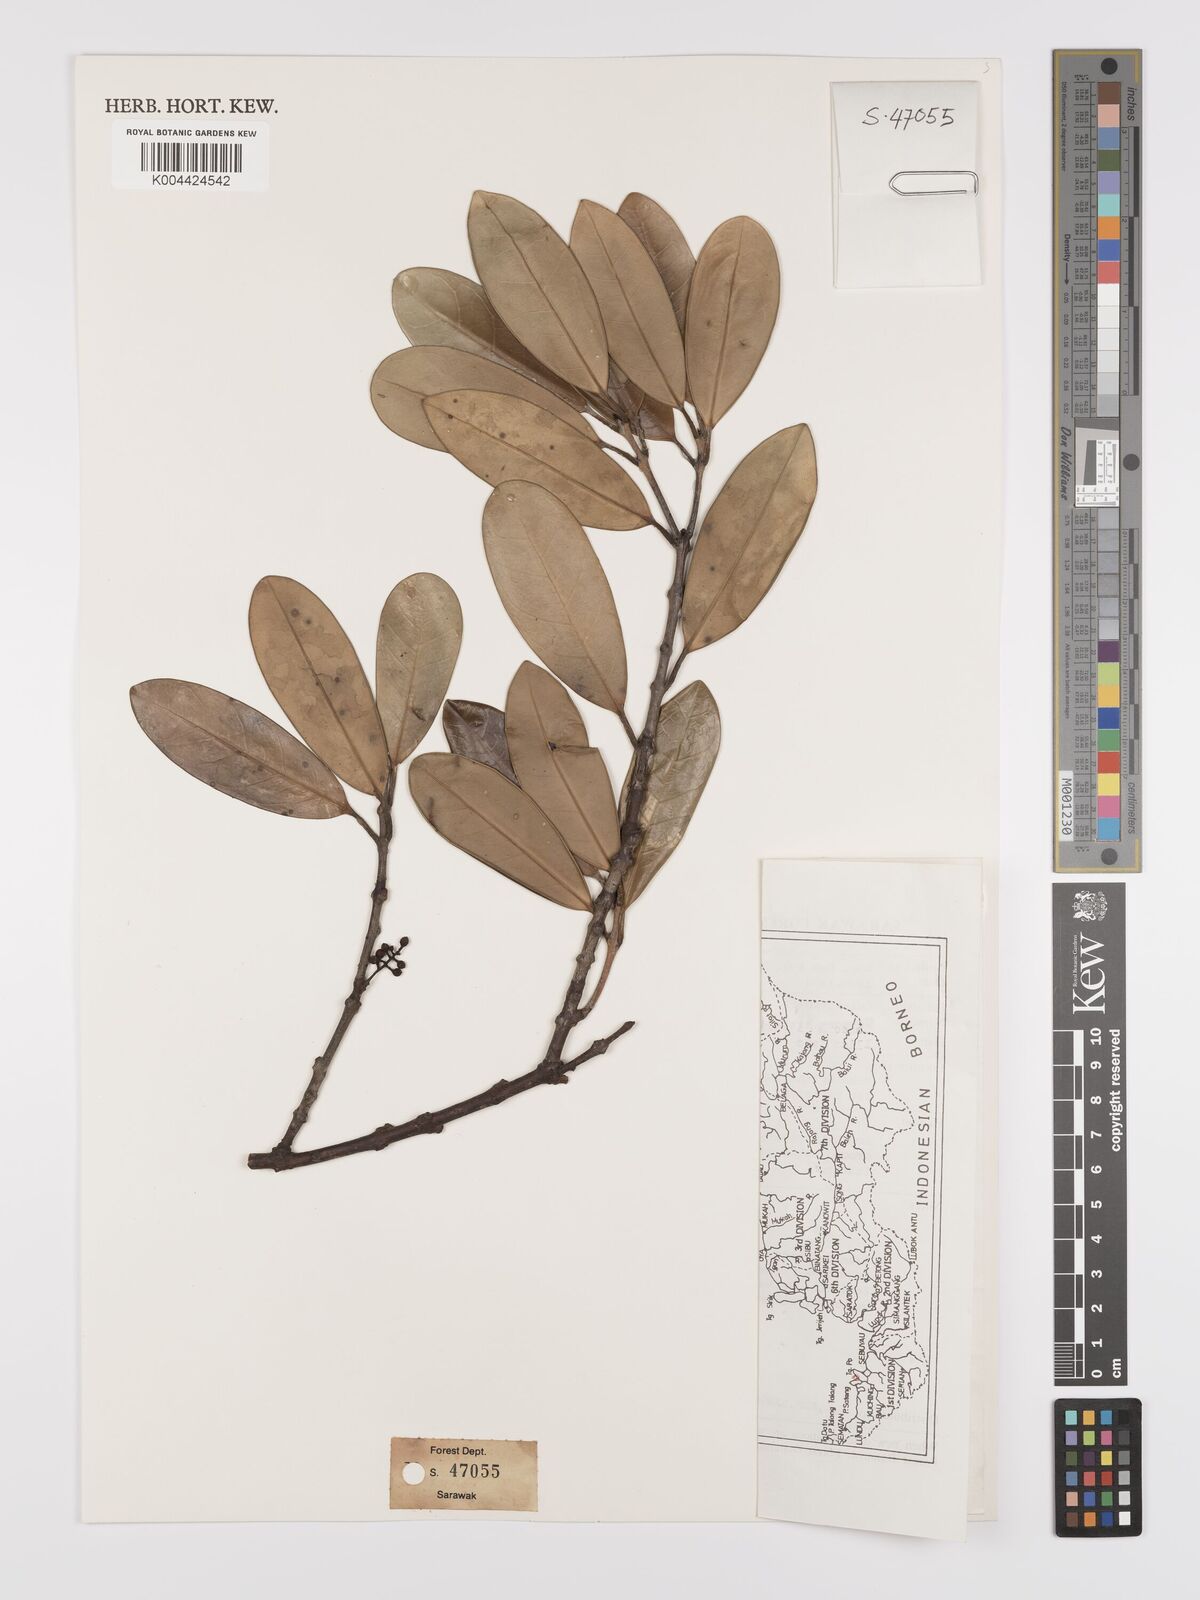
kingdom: Plantae
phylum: Tracheophyta
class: Magnoliopsida
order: Celastrales
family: Celastraceae
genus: Kokoona
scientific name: Kokoona littoralis
